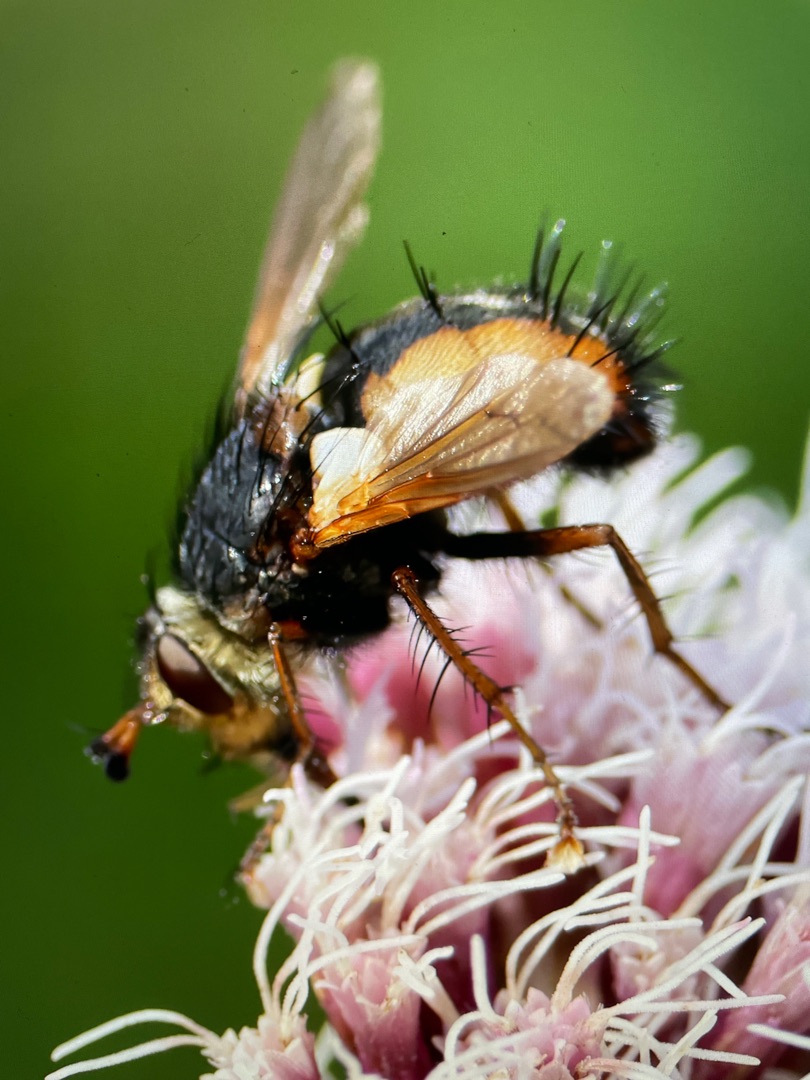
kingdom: Animalia
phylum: Arthropoda
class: Insecta
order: Diptera
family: Tachinidae
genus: Tachina
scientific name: Tachina fera
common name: Mellemfluen oskar
